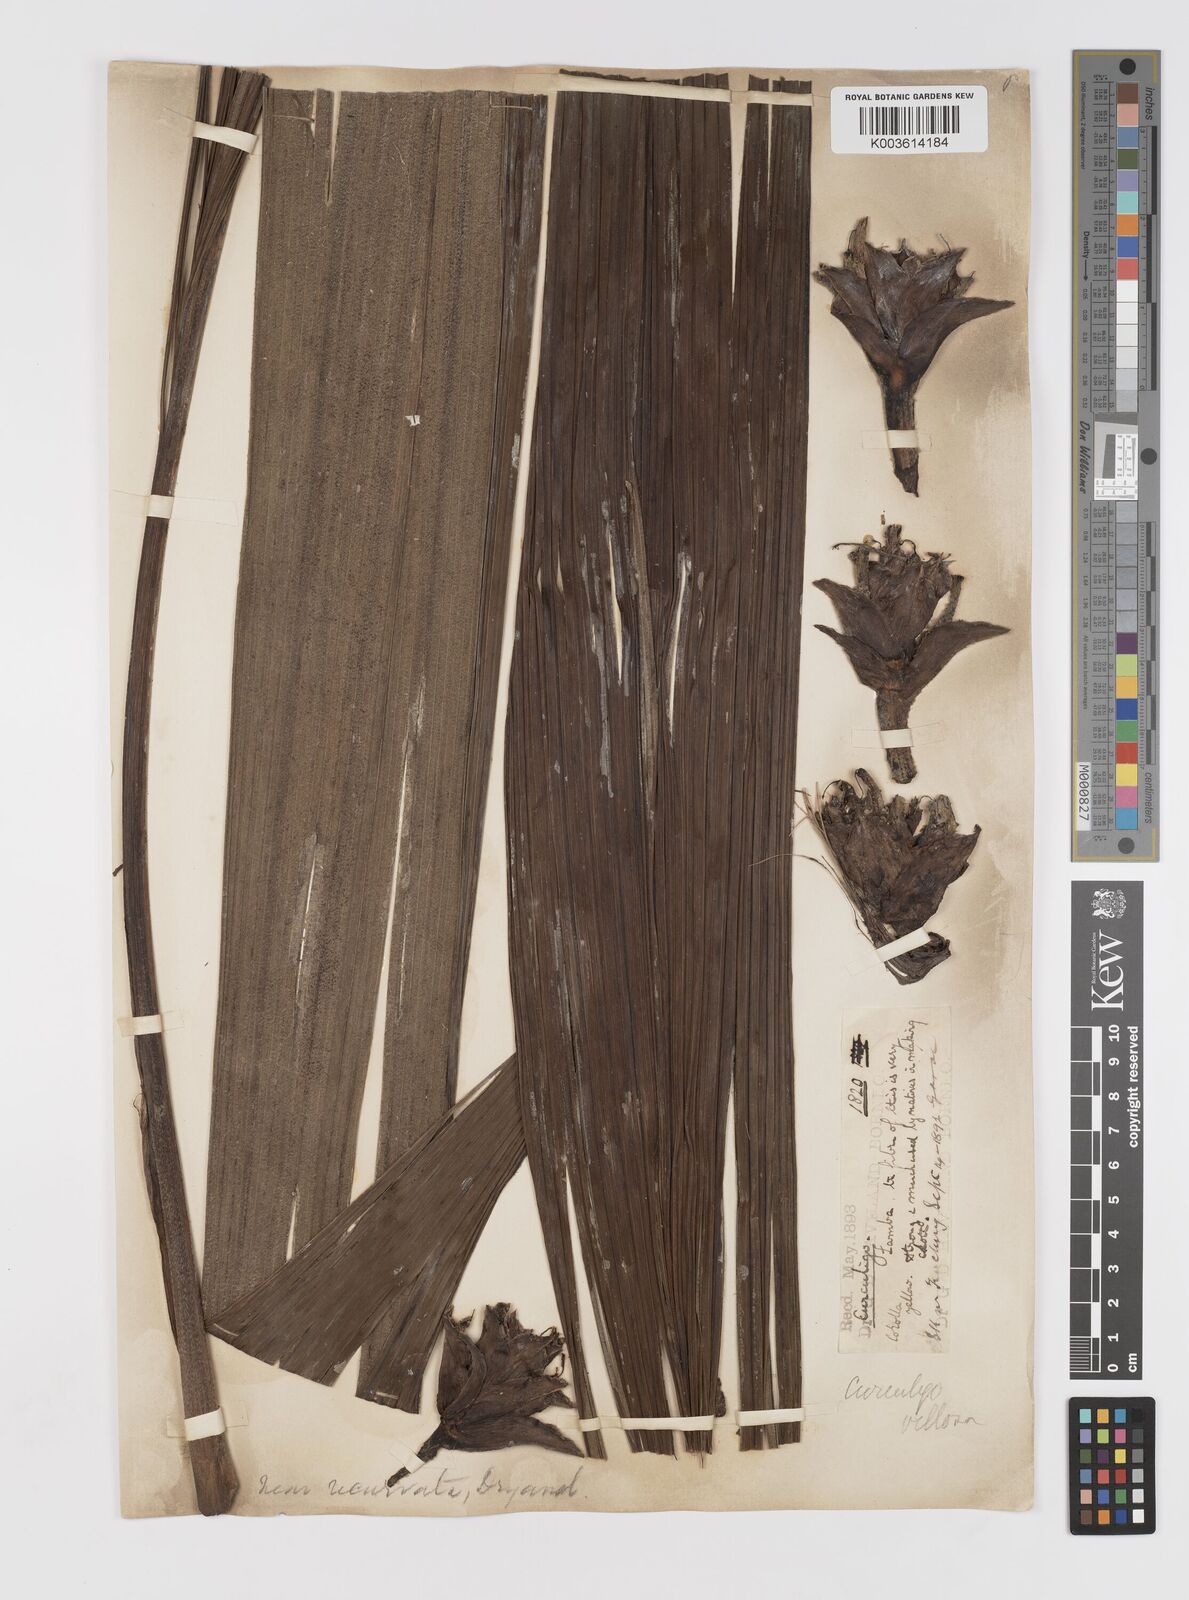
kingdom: Plantae
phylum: Tracheophyta
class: Liliopsida
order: Asparagales
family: Hypoxidaceae
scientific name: Hypoxidaceae
